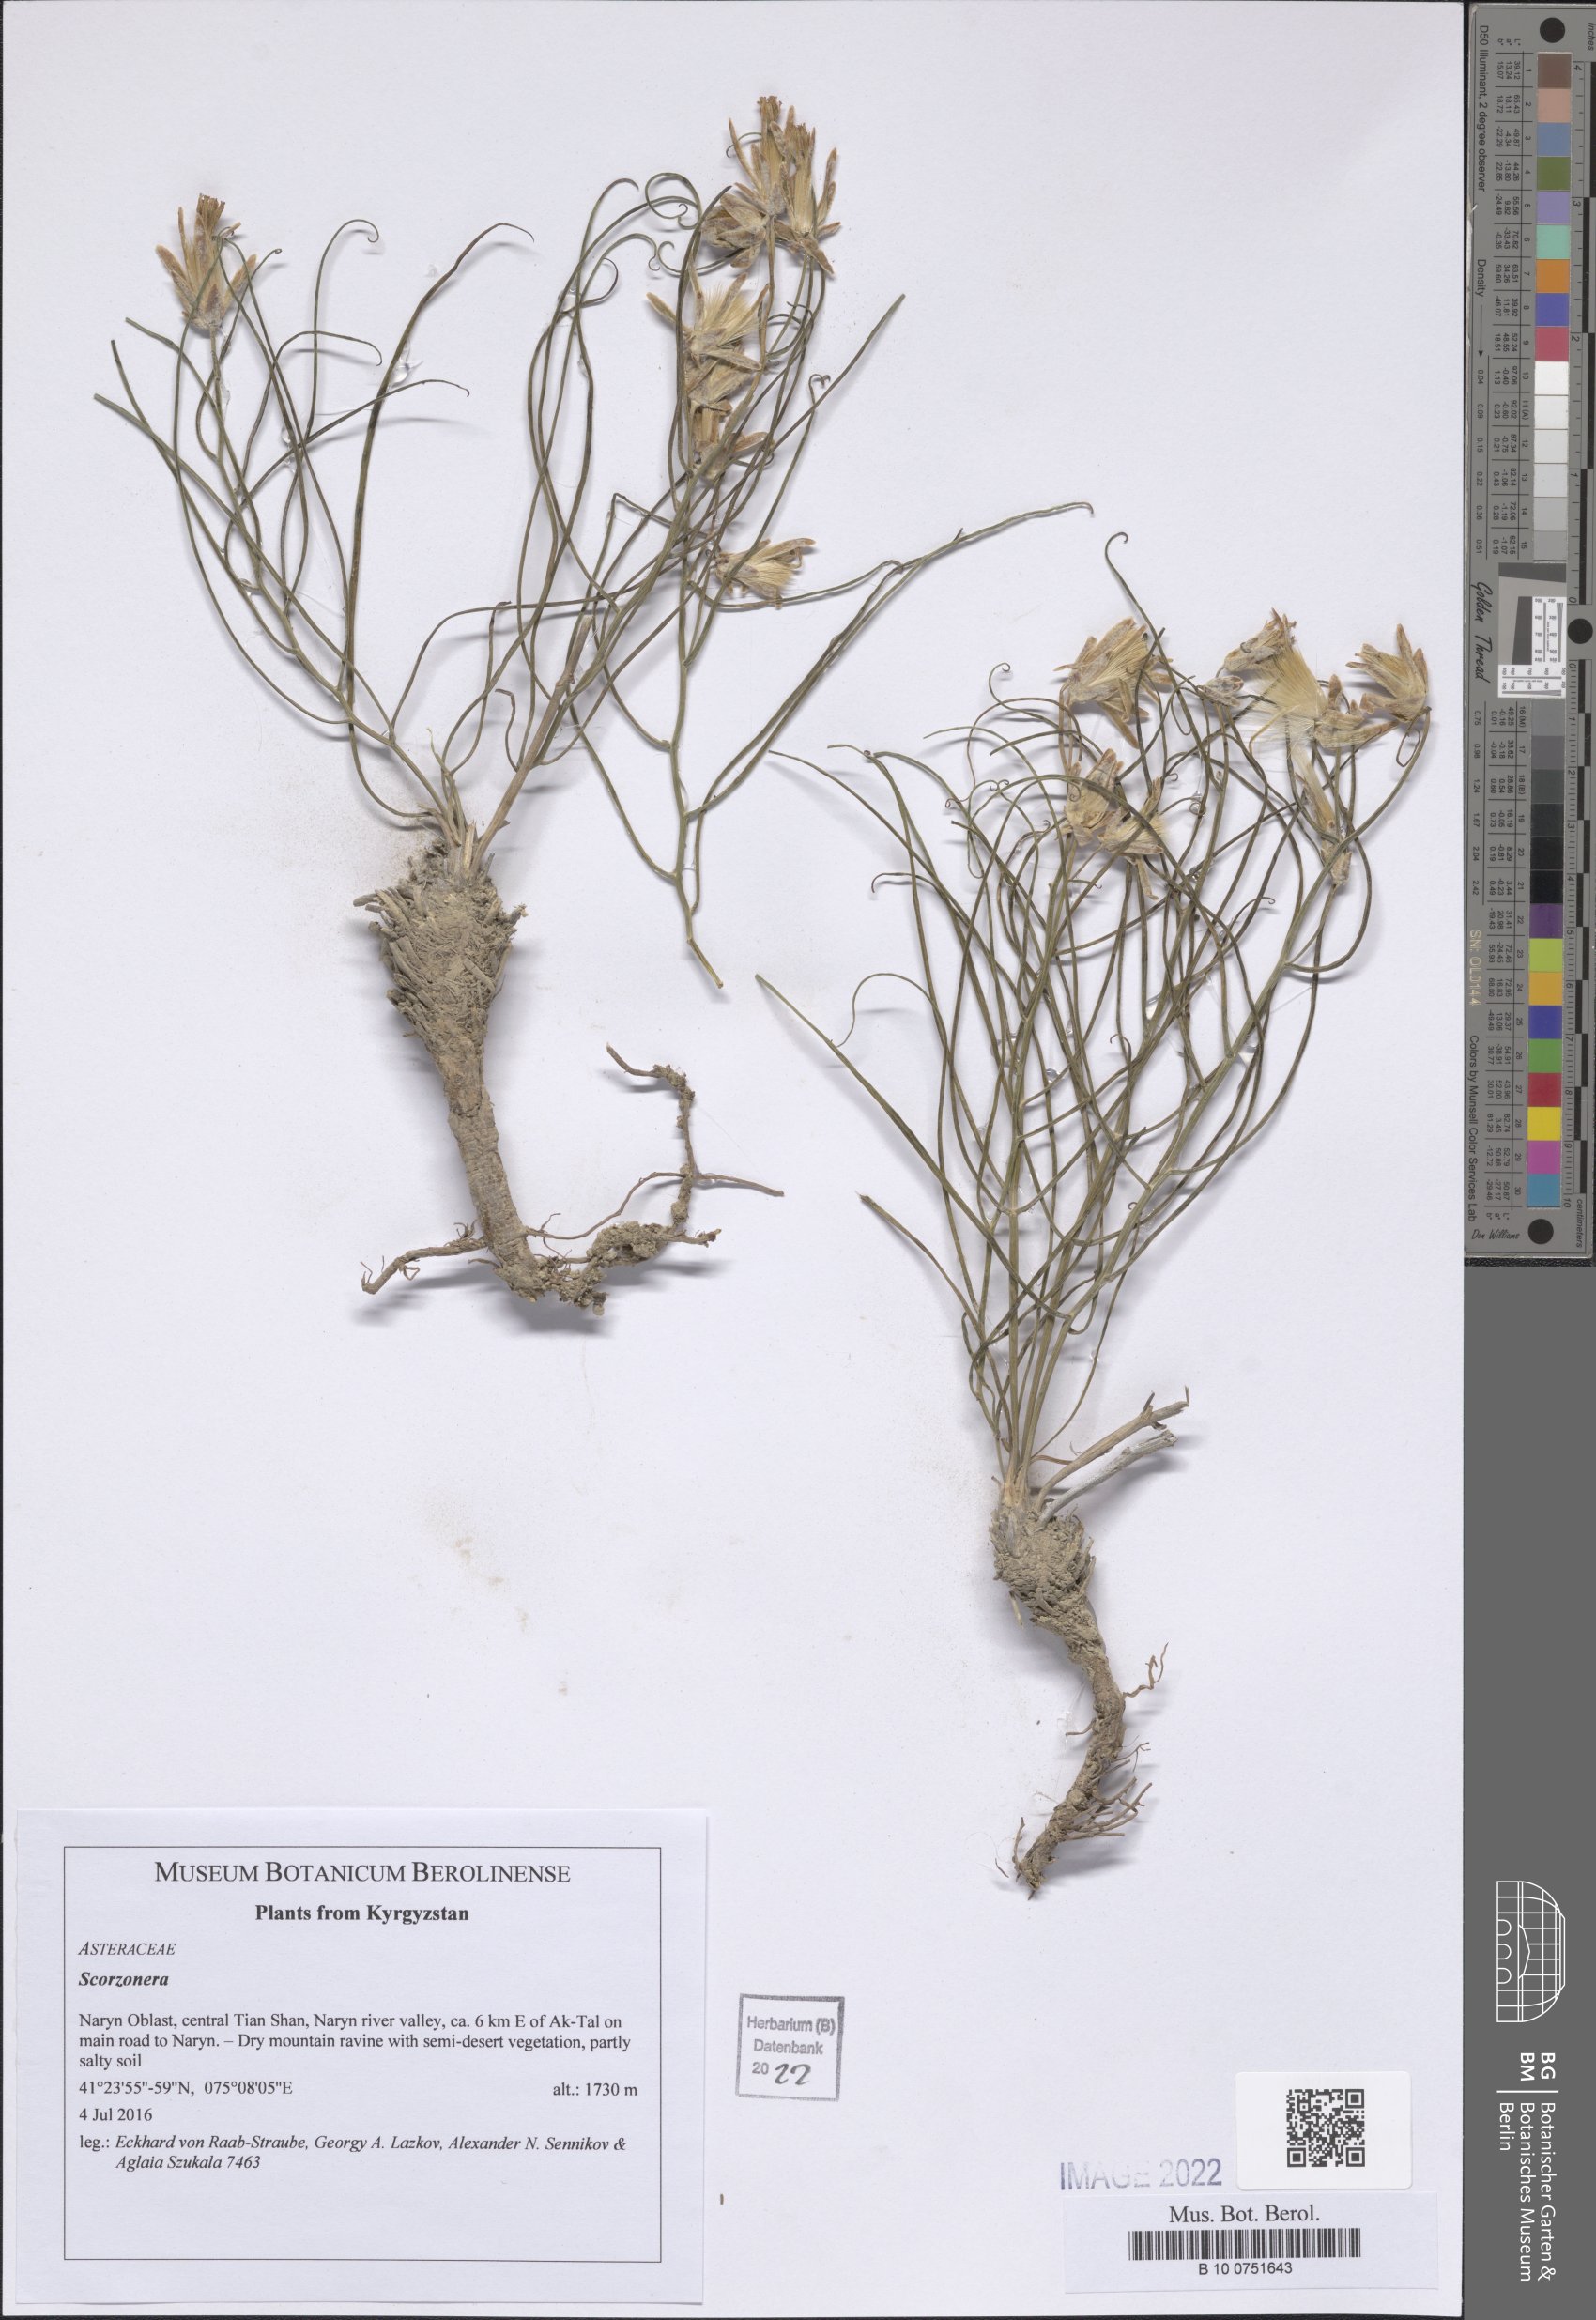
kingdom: Plantae
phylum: Tracheophyta
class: Magnoliopsida
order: Asterales
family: Asteraceae
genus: Scorzonera
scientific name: Scorzonera
